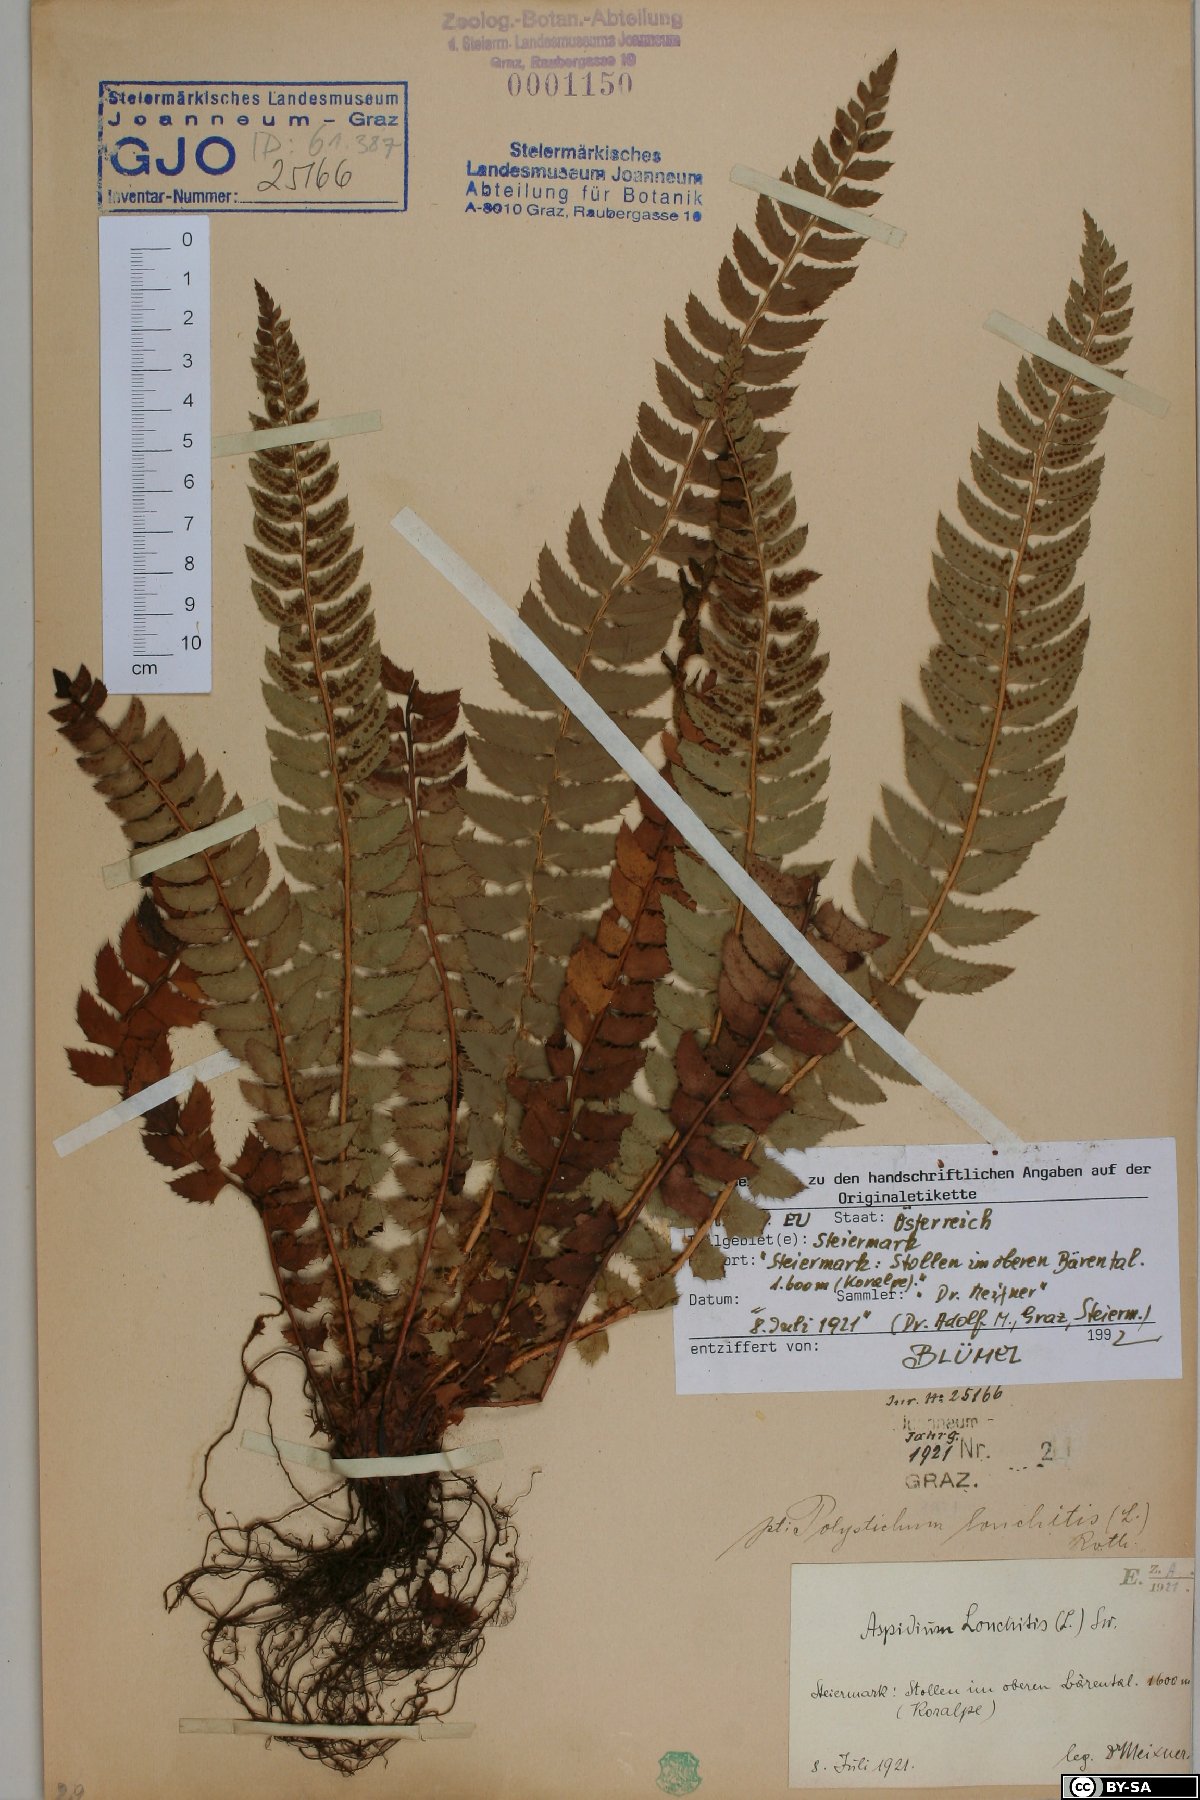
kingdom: Plantae
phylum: Tracheophyta
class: Polypodiopsida
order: Polypodiales
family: Dryopteridaceae
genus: Polystichum
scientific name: Polystichum lonchitis
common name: Holly fern
